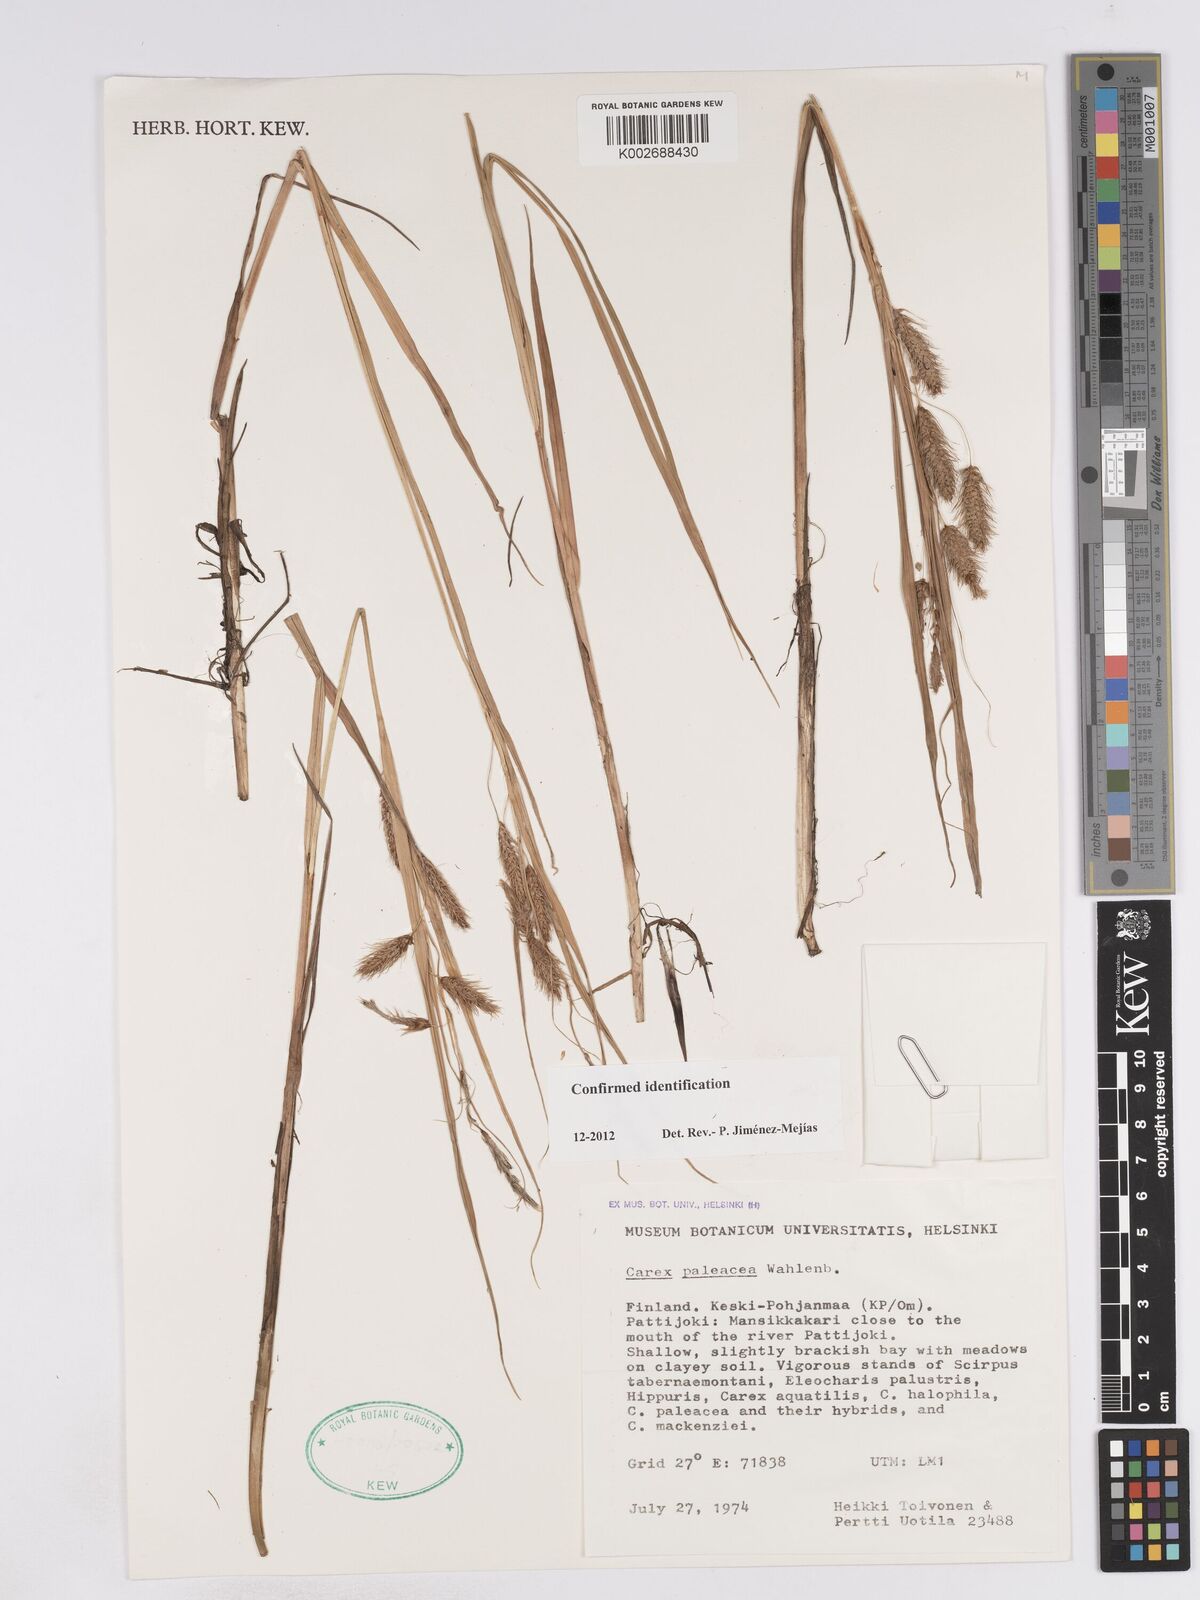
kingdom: Plantae
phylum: Tracheophyta
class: Liliopsida
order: Poales
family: Cyperaceae
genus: Carex
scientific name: Carex paleacea
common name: Chaffy sedge
